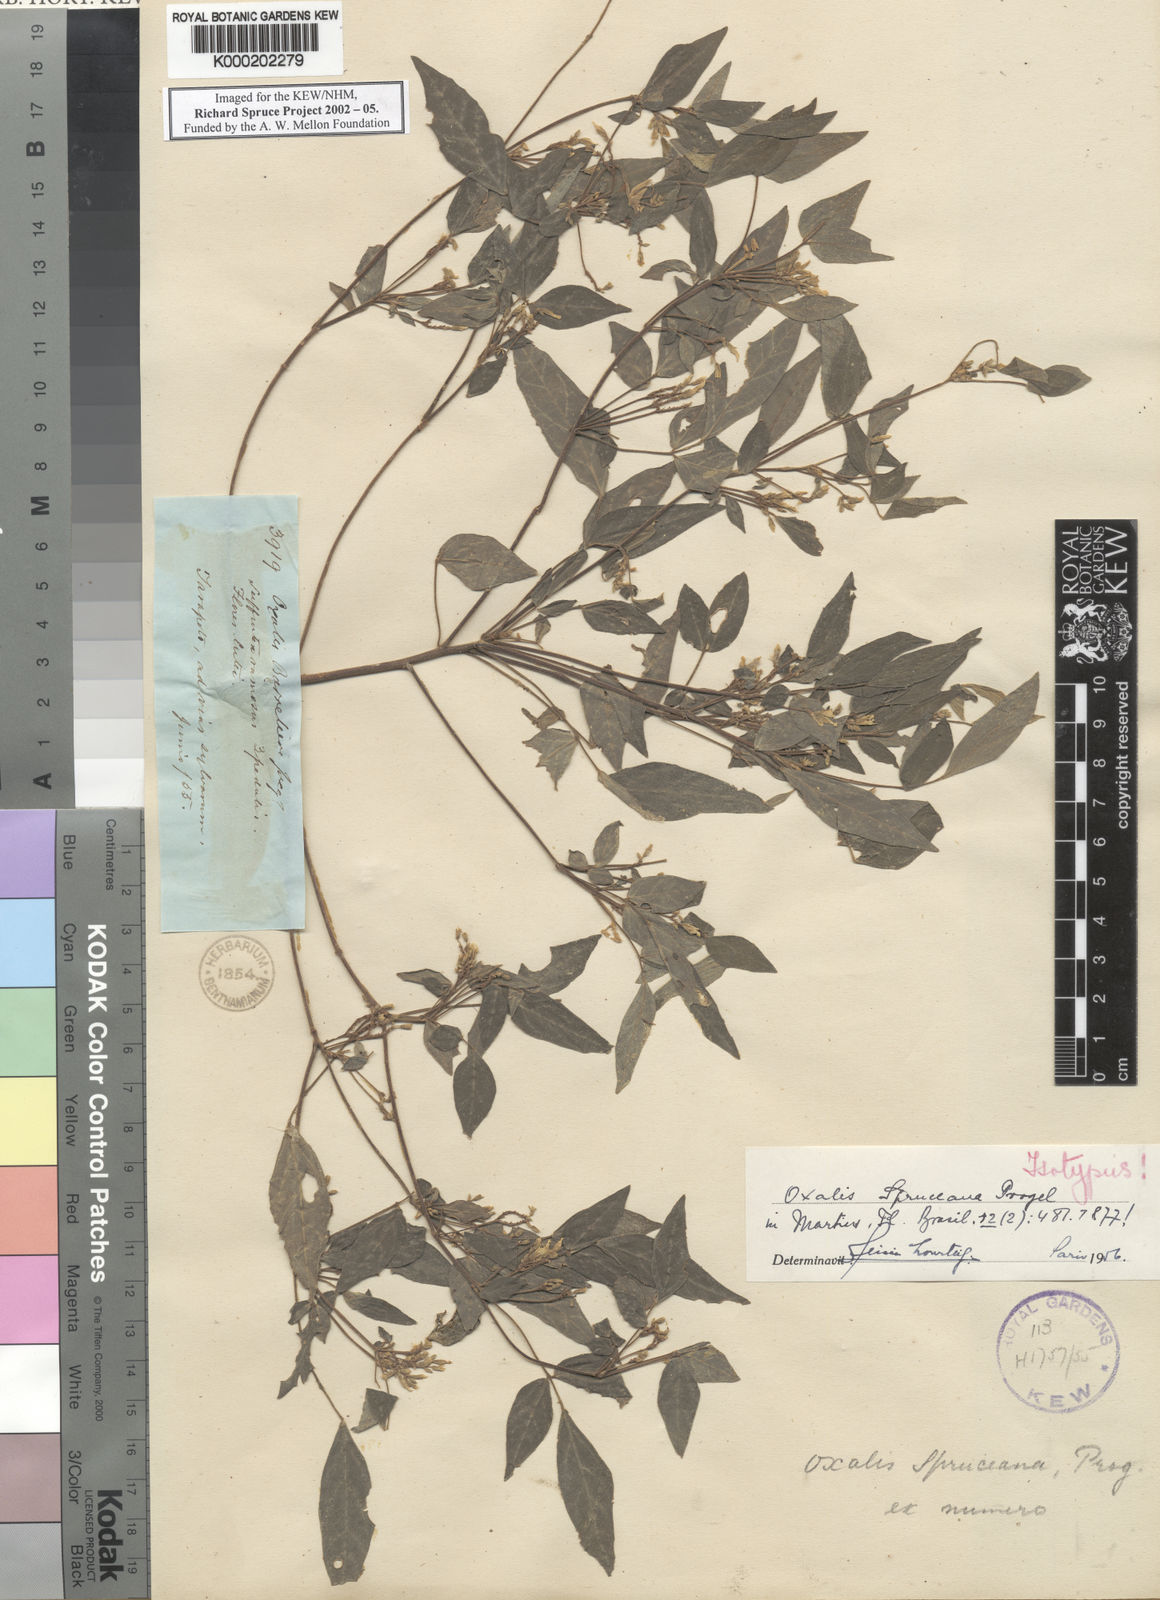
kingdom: Plantae
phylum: Tracheophyta
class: Magnoliopsida
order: Oxalidales
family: Oxalidaceae
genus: Oxalis
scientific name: Oxalis spruceana
